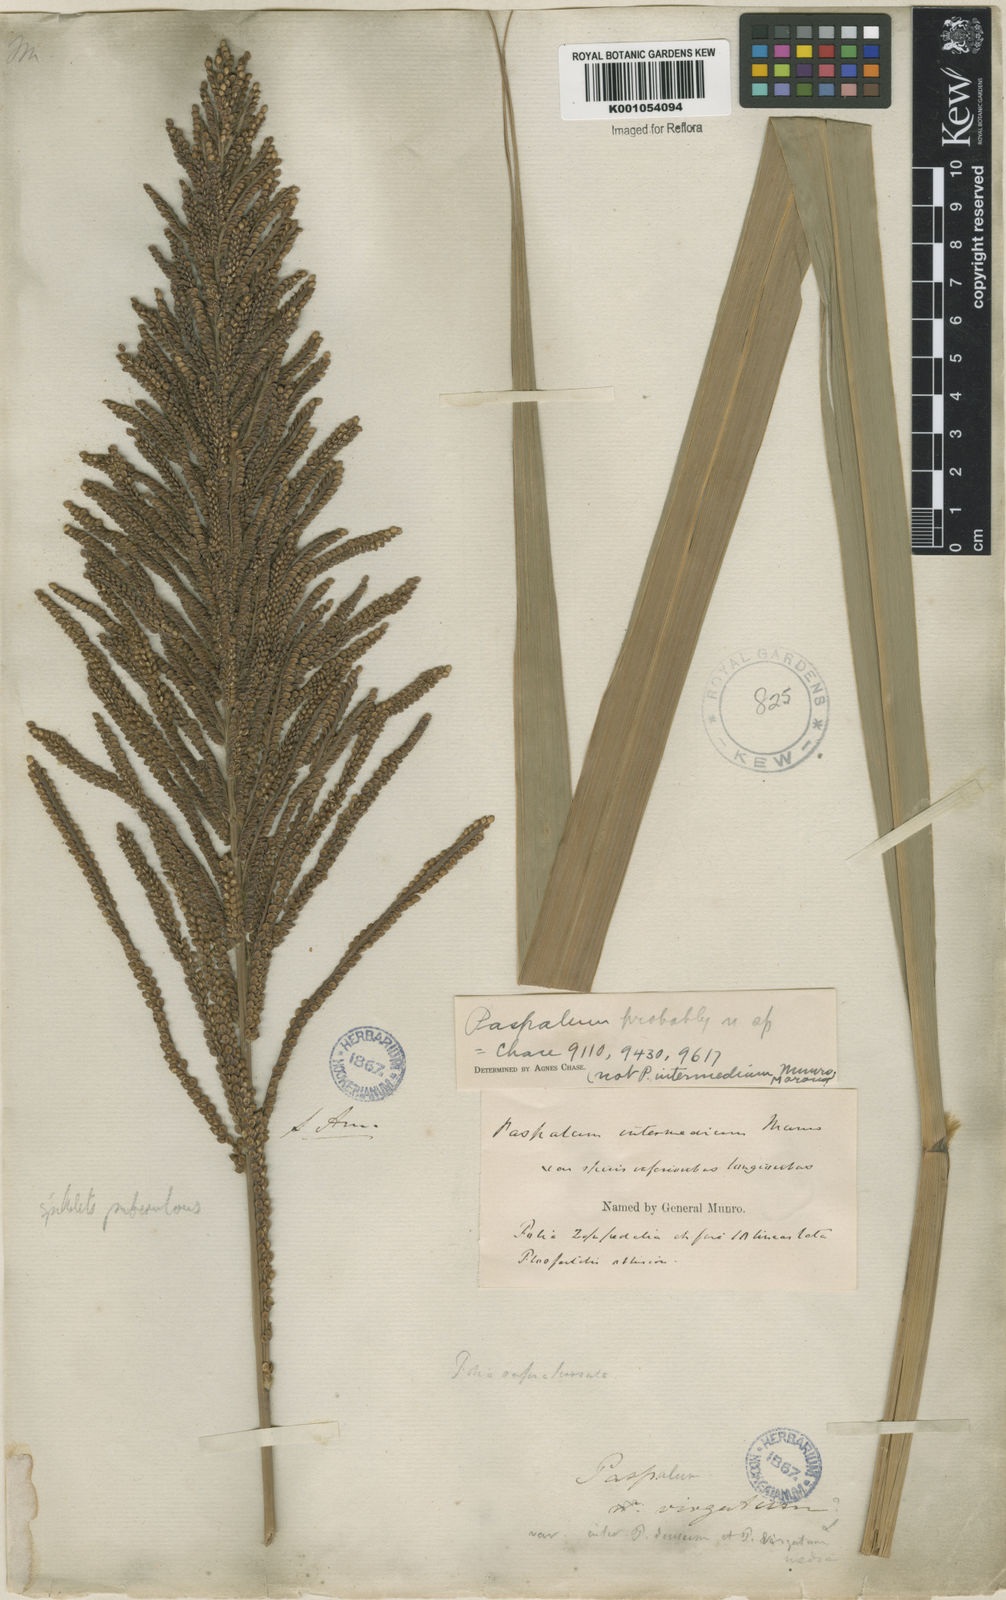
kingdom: Plantae
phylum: Tracheophyta
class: Liliopsida
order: Poales
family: Poaceae
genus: Paspalum
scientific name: Paspalum intermedium
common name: Intermediate paspalum
